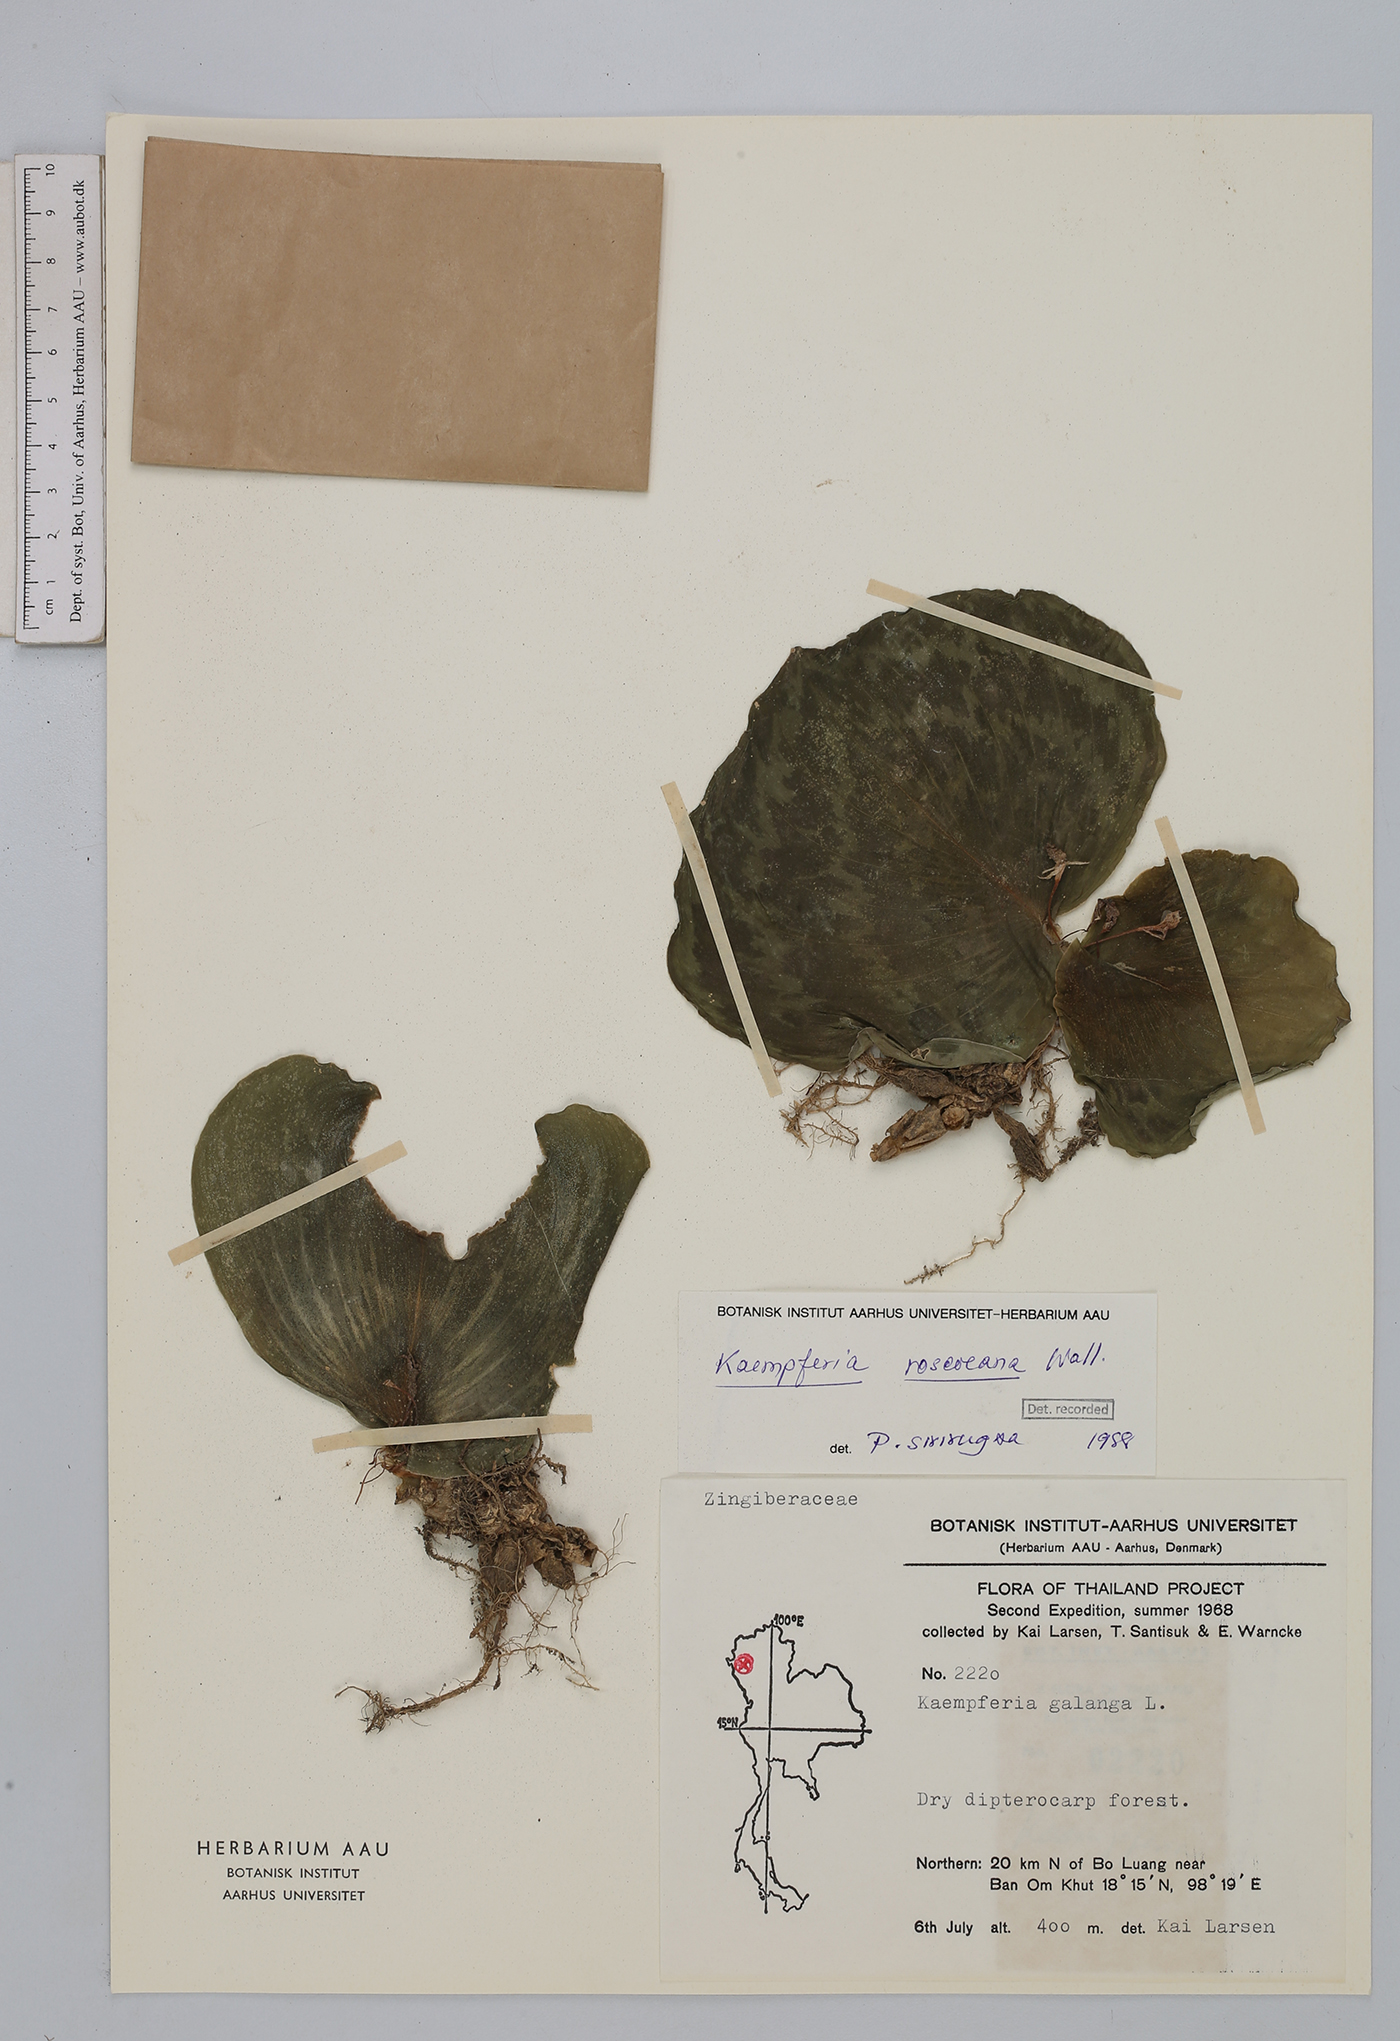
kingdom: Plantae
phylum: Tracheophyta
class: Liliopsida
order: Zingiberales
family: Zingiberaceae
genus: Kaempferia
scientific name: Kaempferia roscoeana
